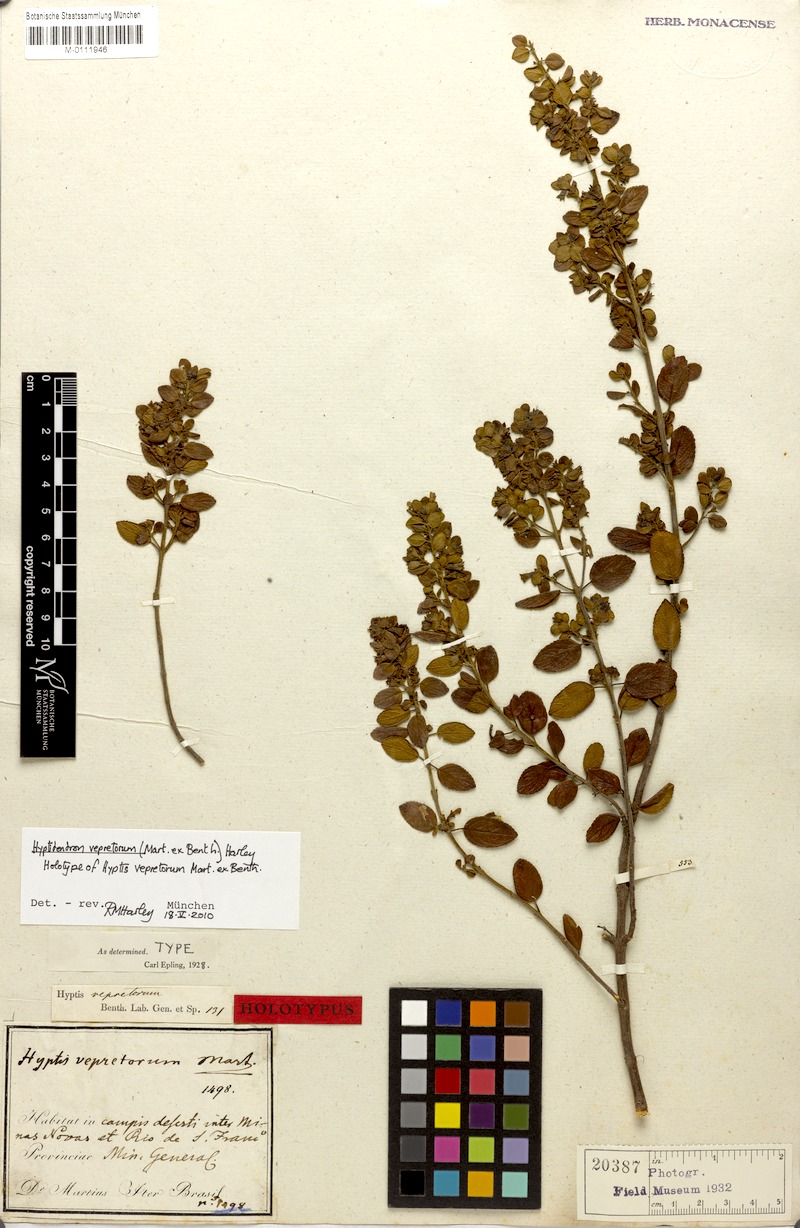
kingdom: Plantae
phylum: Tracheophyta
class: Magnoliopsida
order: Lamiales
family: Lamiaceae
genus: Hyptidendron
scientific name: Hyptidendron vepretorum
